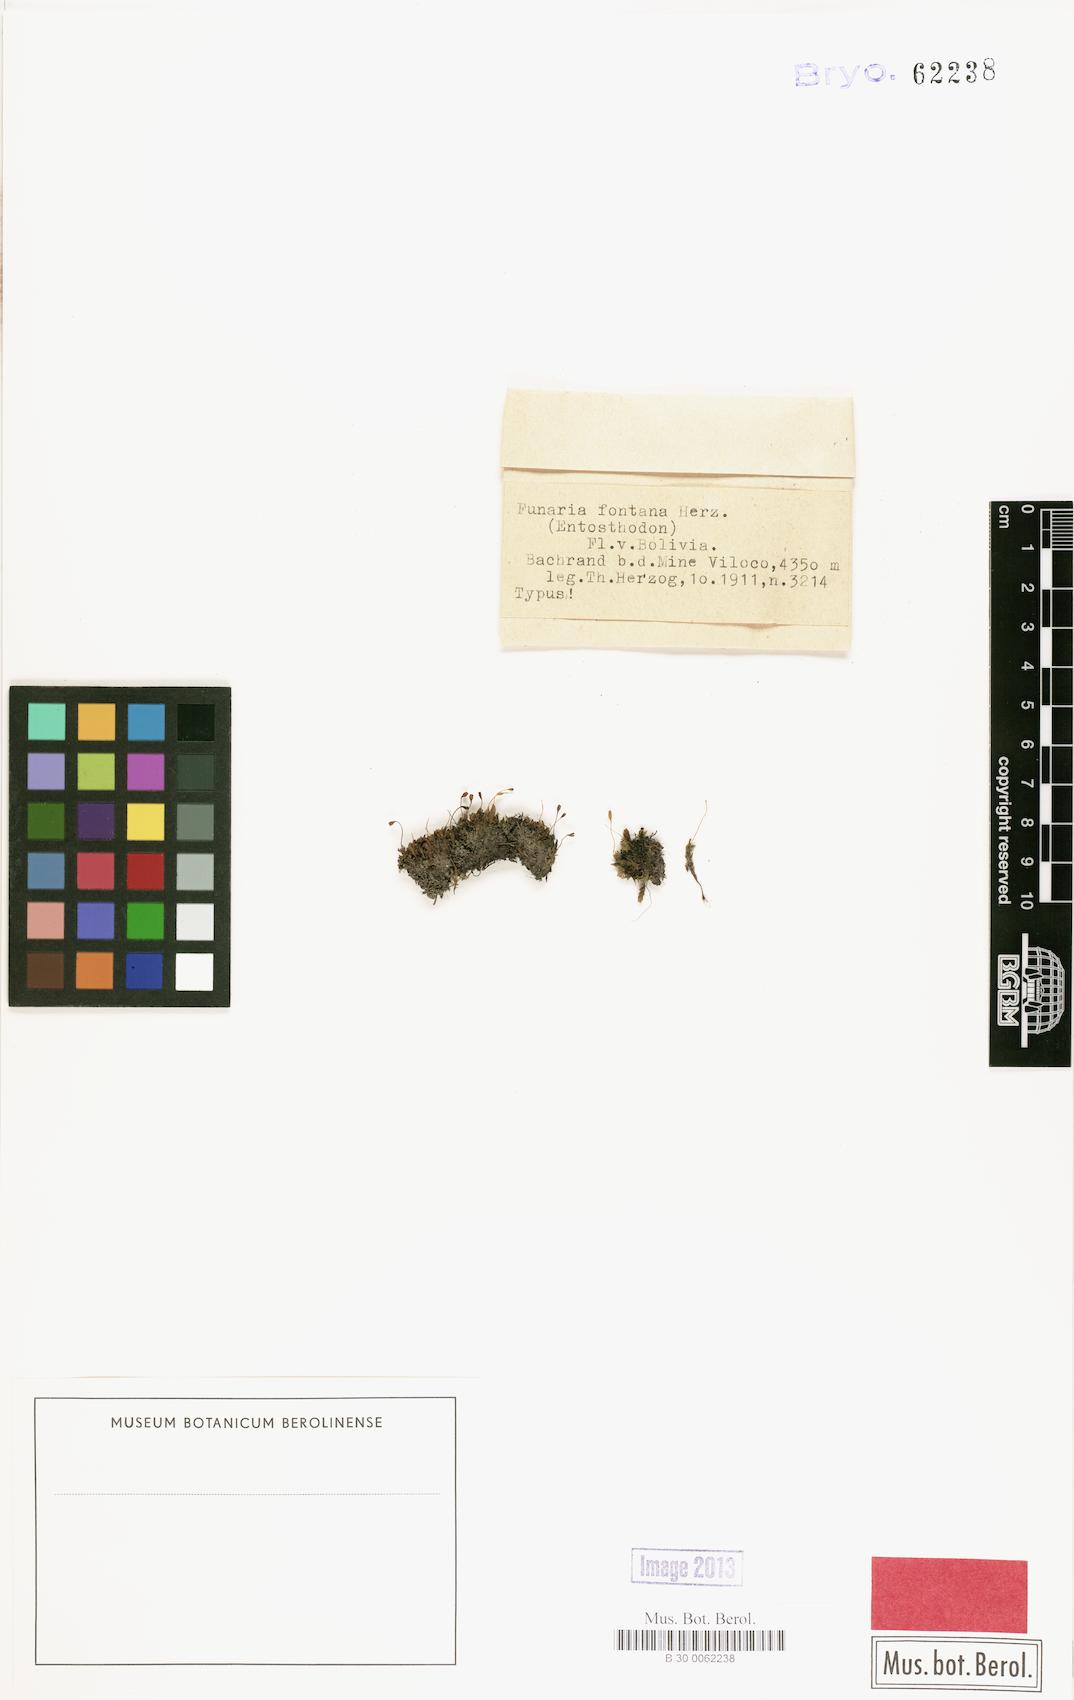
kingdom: Plantae
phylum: Bryophyta
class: Bryopsida
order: Funariales
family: Funariaceae
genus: Entosthodon
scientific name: Entosthodon laxus
